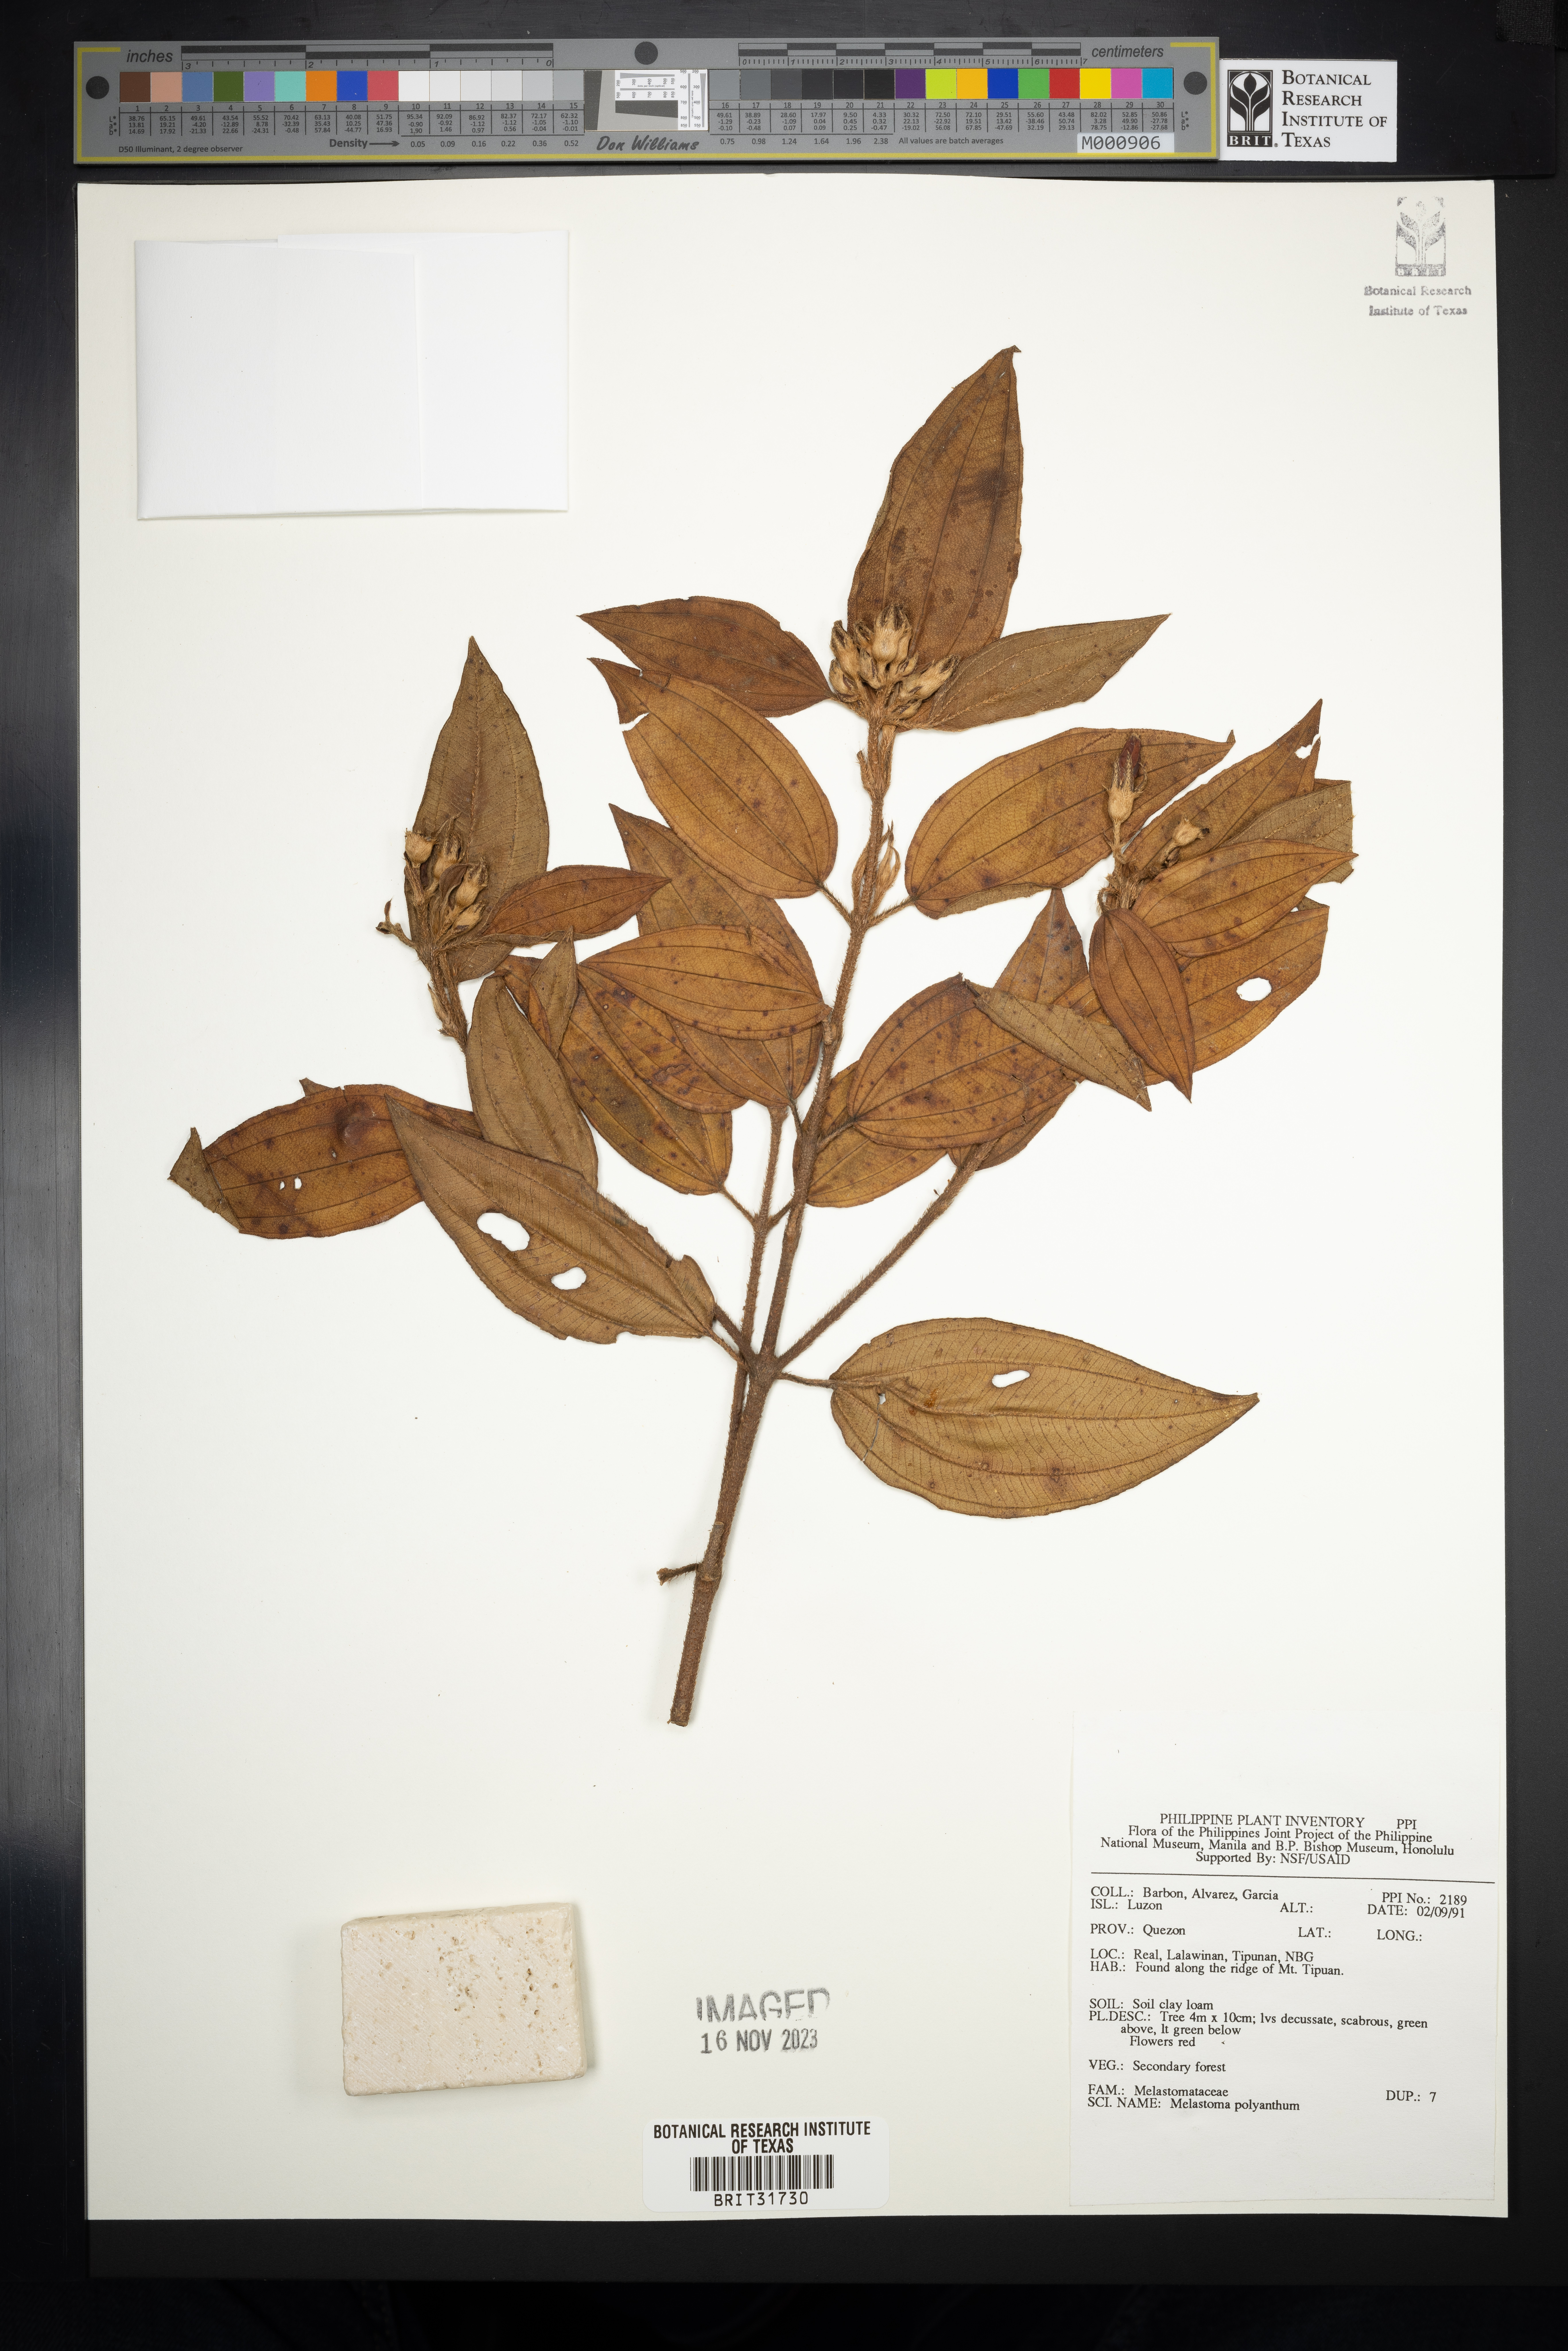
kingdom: Plantae
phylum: Tracheophyta
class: Magnoliopsida
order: Myrtales
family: Melastomataceae
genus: Melastoma
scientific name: Melastoma malabathricum
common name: Indian-rhododendron
